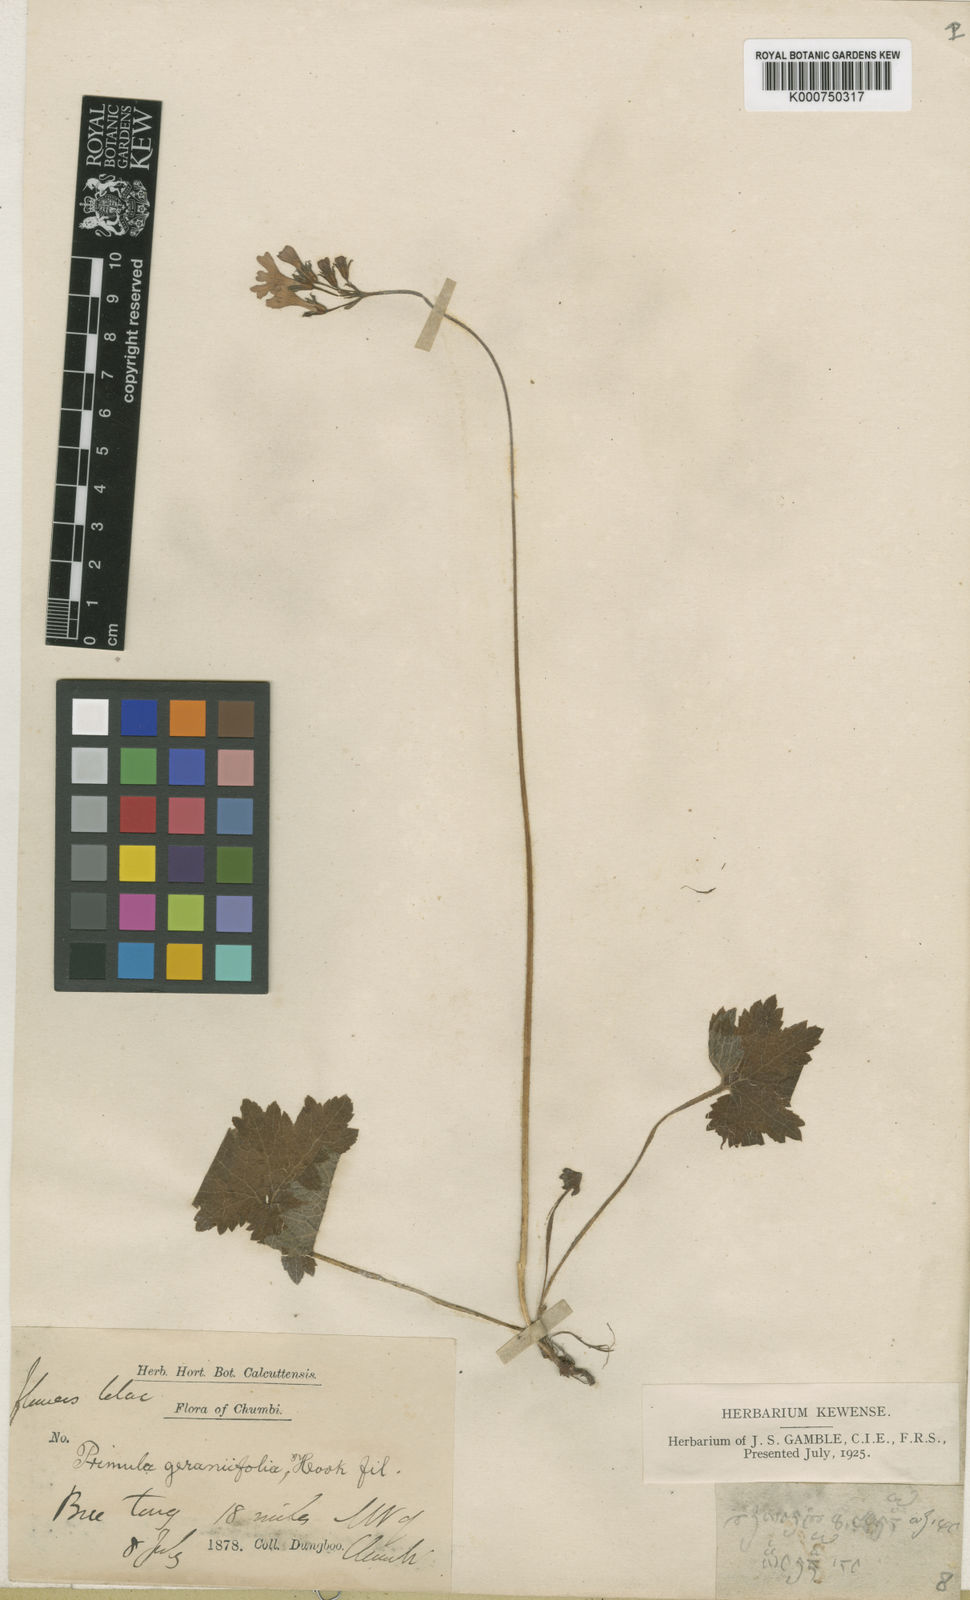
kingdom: Plantae
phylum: Tracheophyta
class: Magnoliopsida
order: Ericales
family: Primulaceae
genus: Primula
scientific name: Primula geraniifolia
